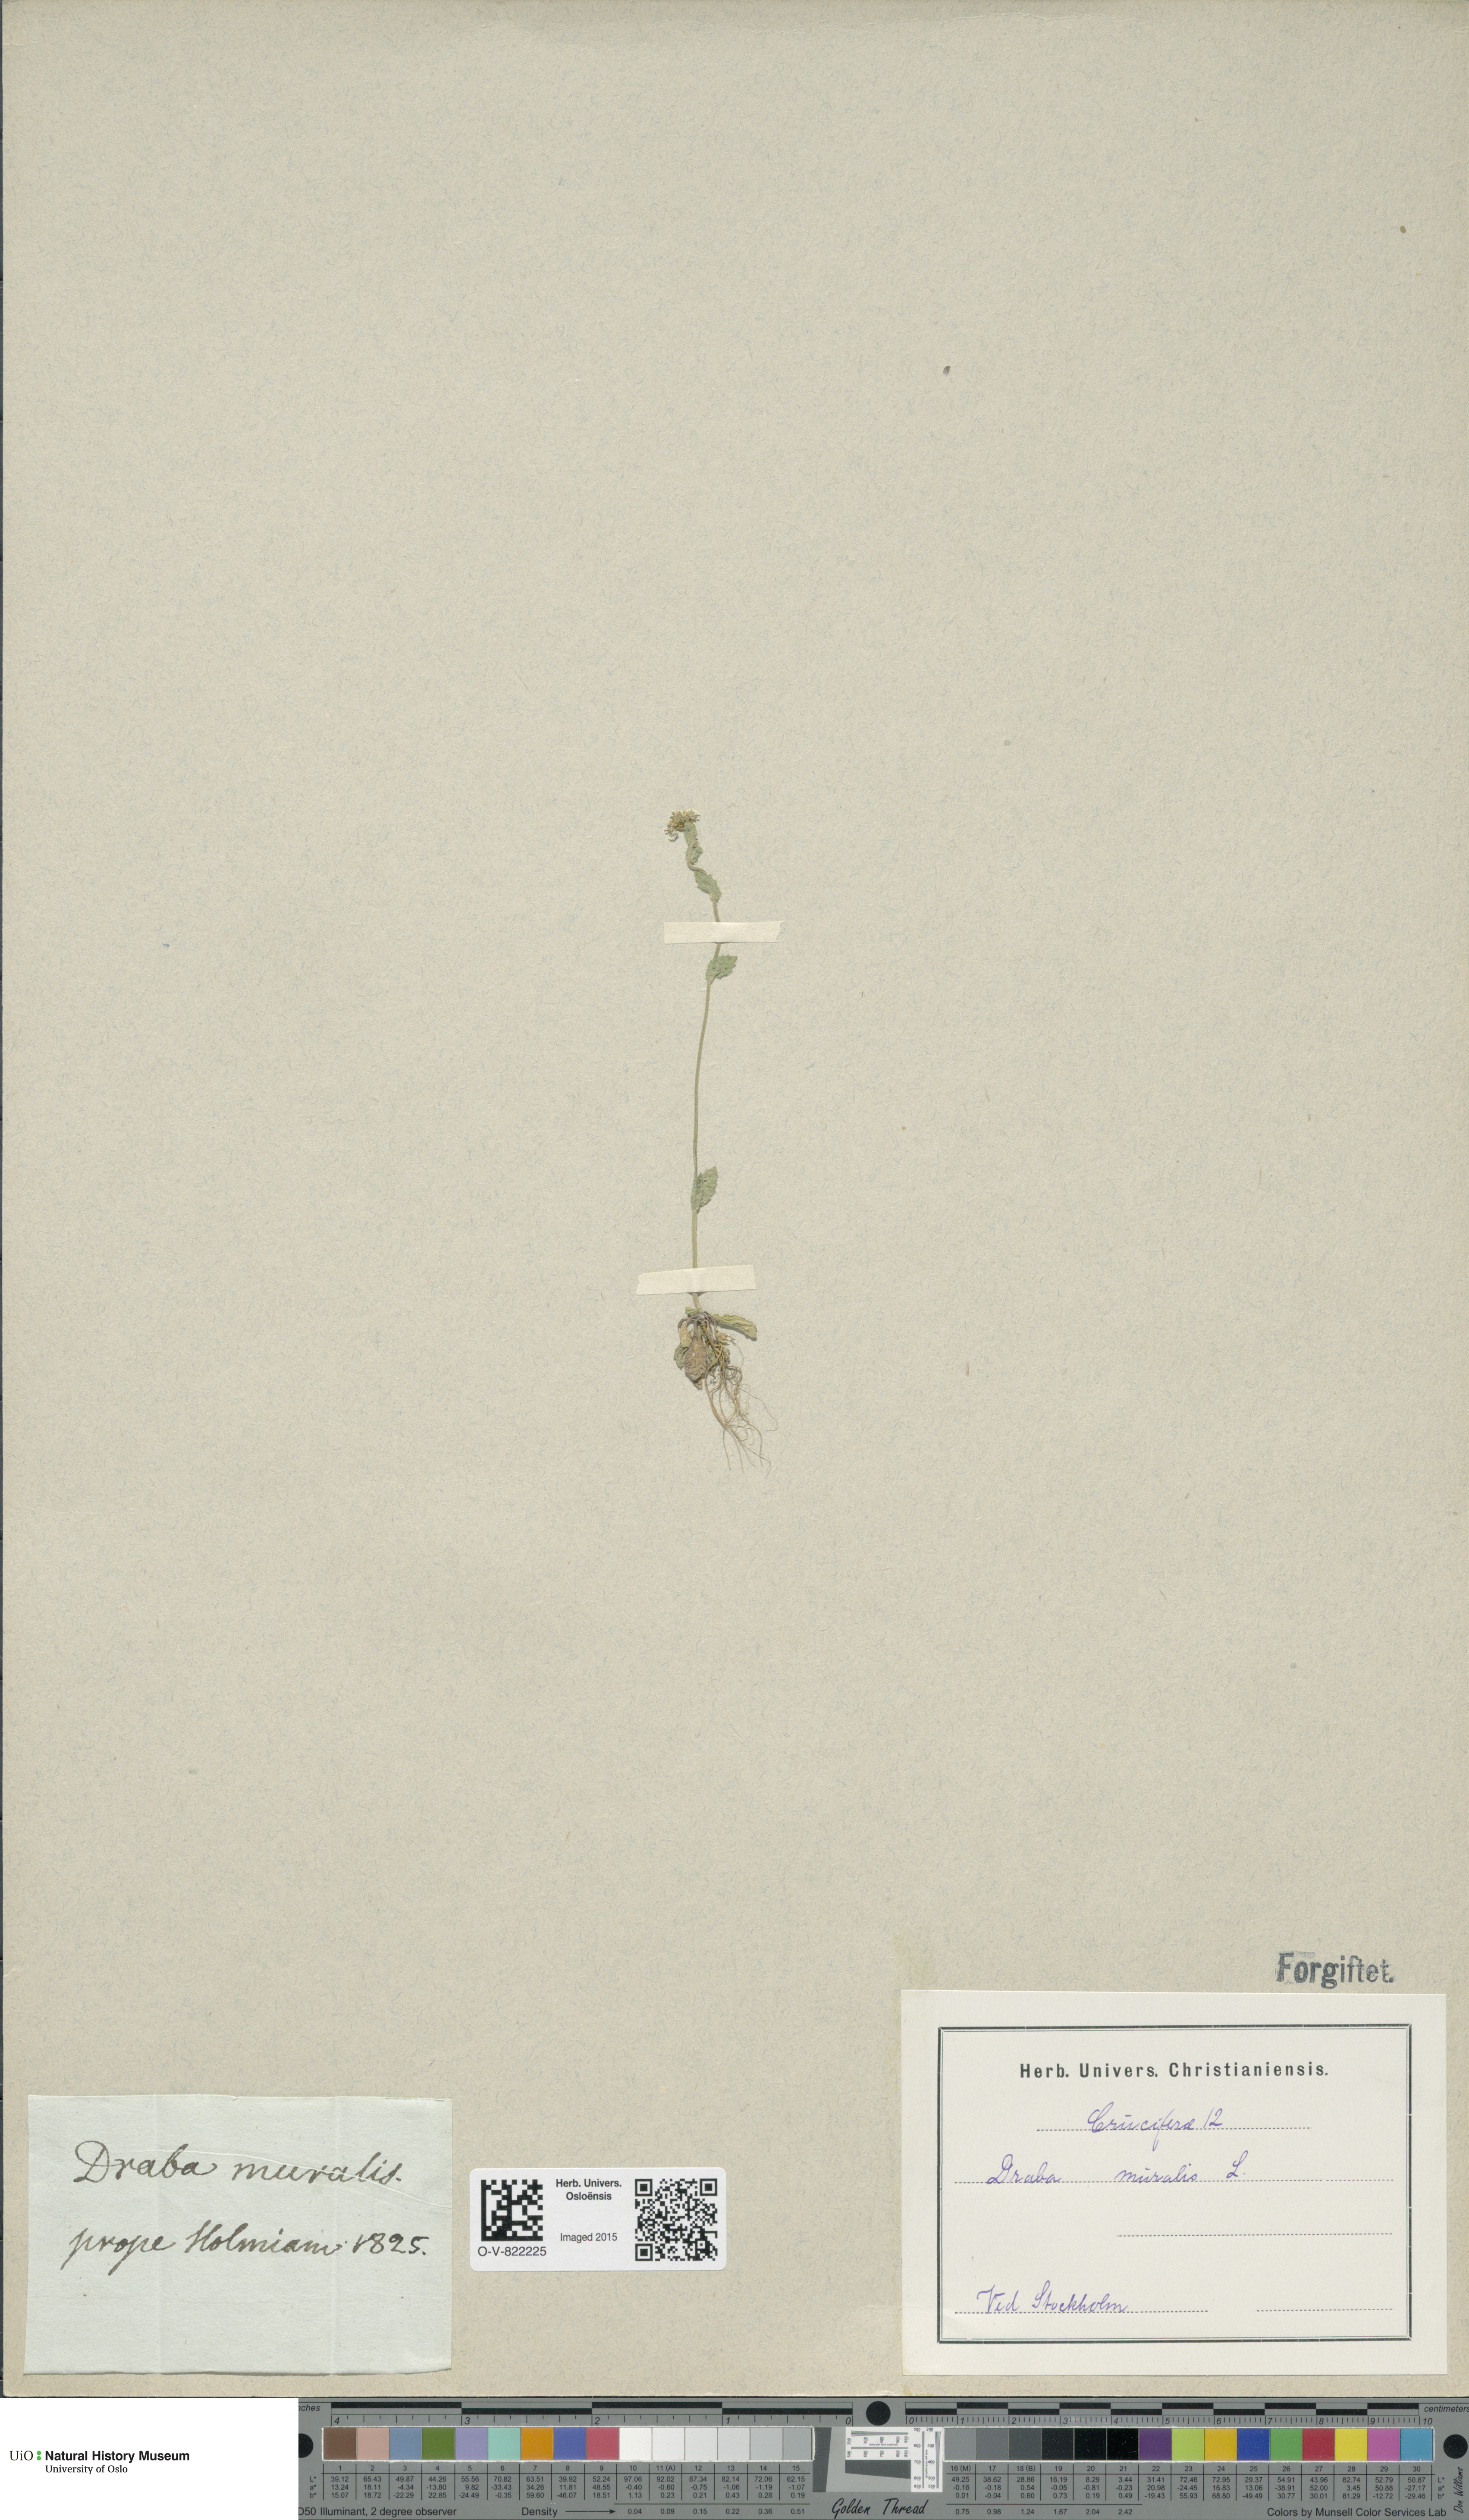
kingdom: Plantae
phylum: Tracheophyta
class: Magnoliopsida
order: Brassicales
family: Brassicaceae
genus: Drabella
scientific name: Drabella muralis
